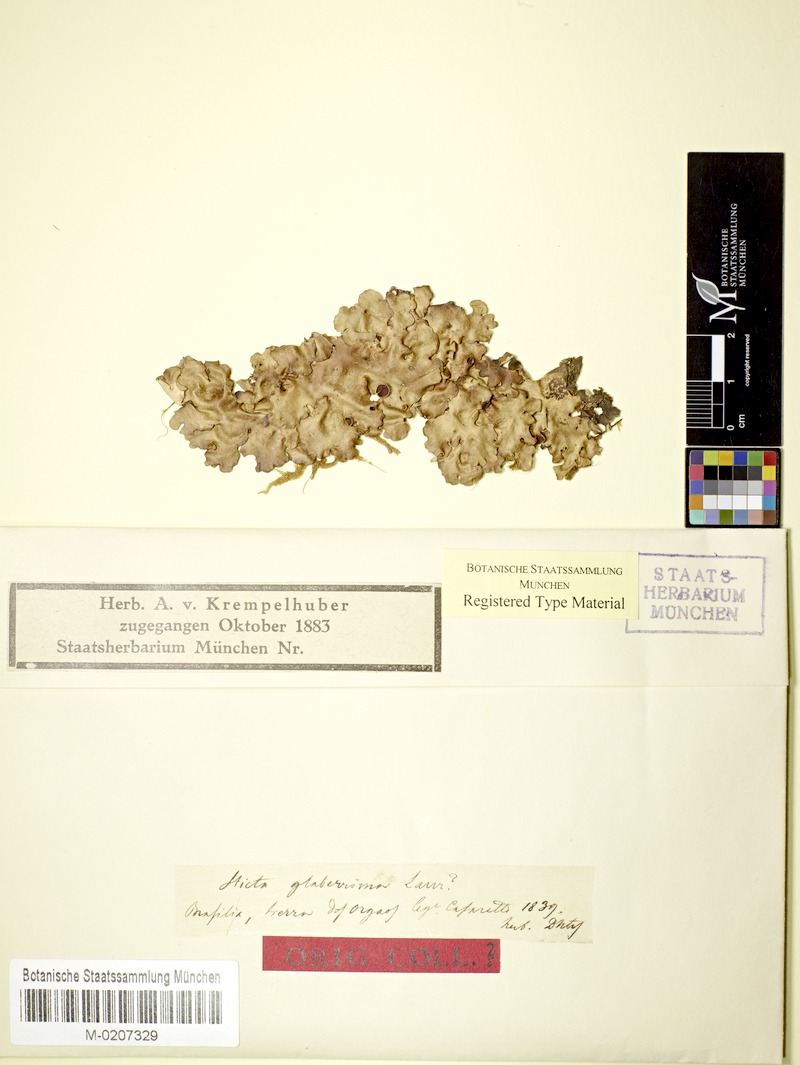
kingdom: Fungi
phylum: Ascomycota
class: Lecanoromycetes
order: Peltigerales
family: Lobariaceae
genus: Lobaria
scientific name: Lobaria pseudoglaberrima
